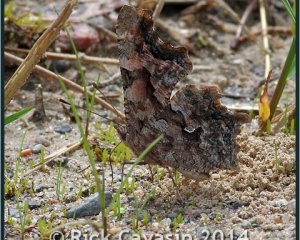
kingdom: Animalia
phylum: Arthropoda
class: Insecta
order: Lepidoptera
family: Nymphalidae
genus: Polygonia
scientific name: Polygonia faunus
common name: Green Comma
